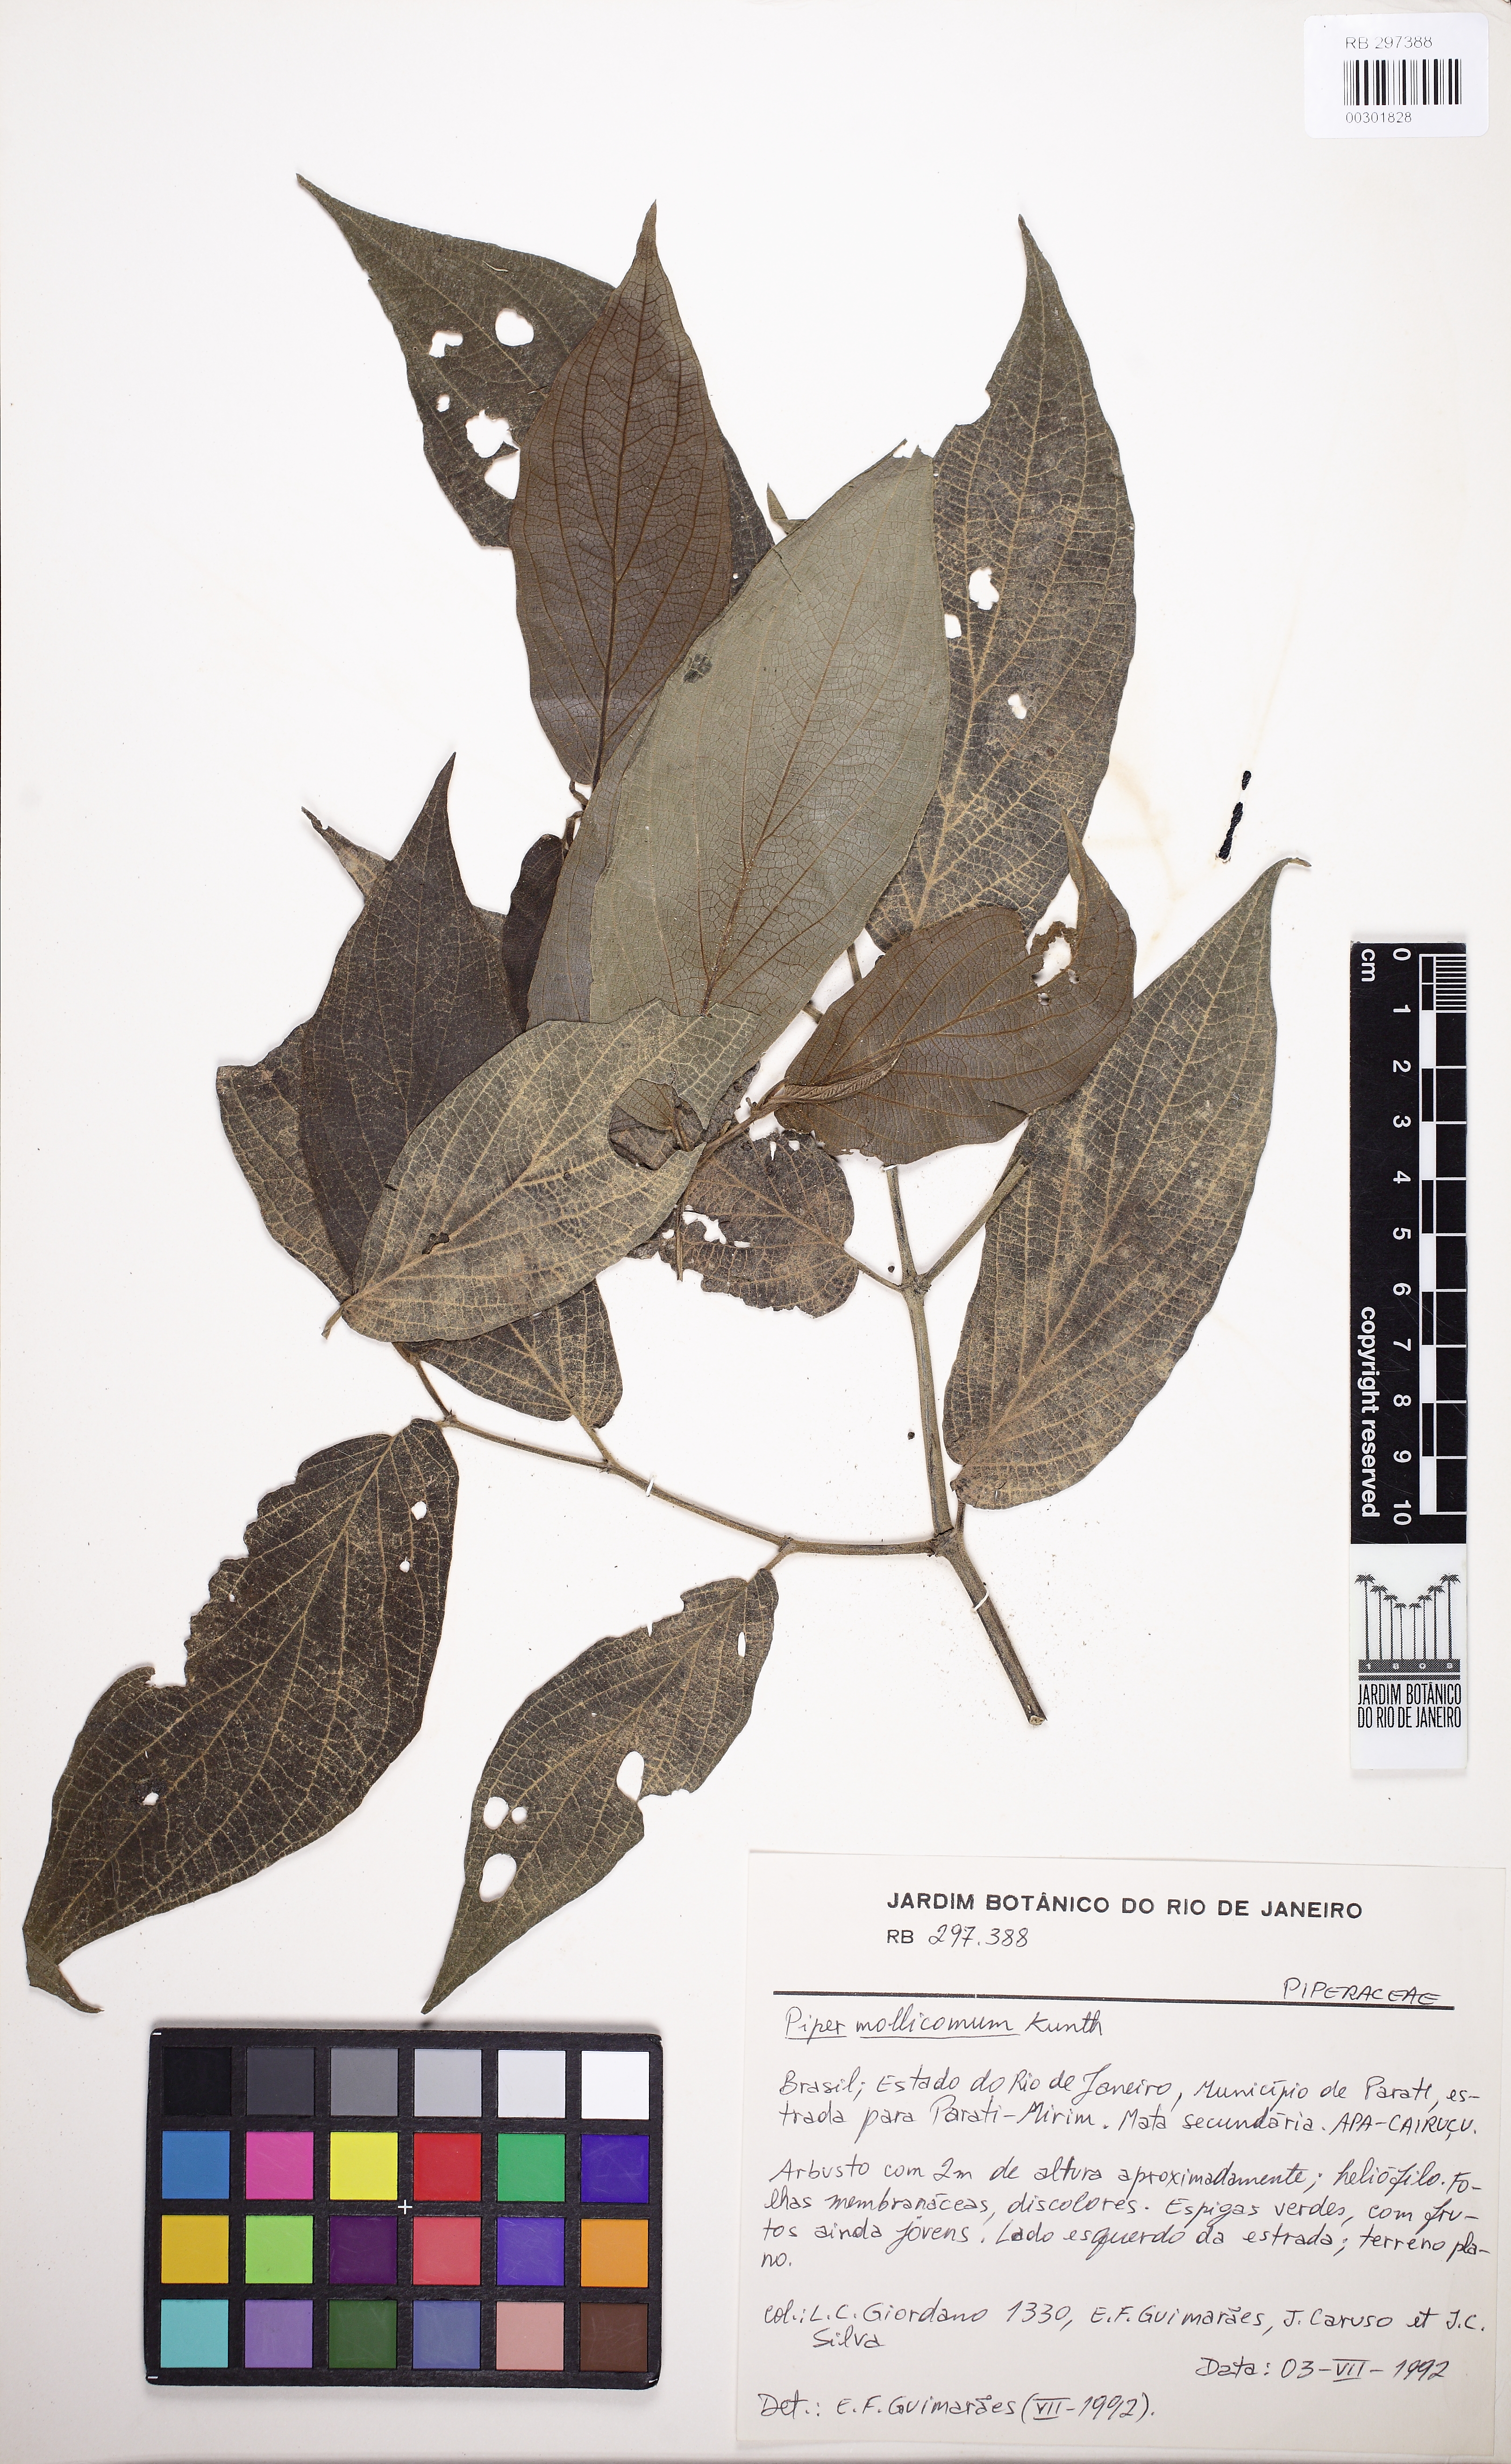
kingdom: Plantae
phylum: Tracheophyta
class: Magnoliopsida
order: Piperales
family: Piperaceae
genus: Piper
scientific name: Piper mollicomum
